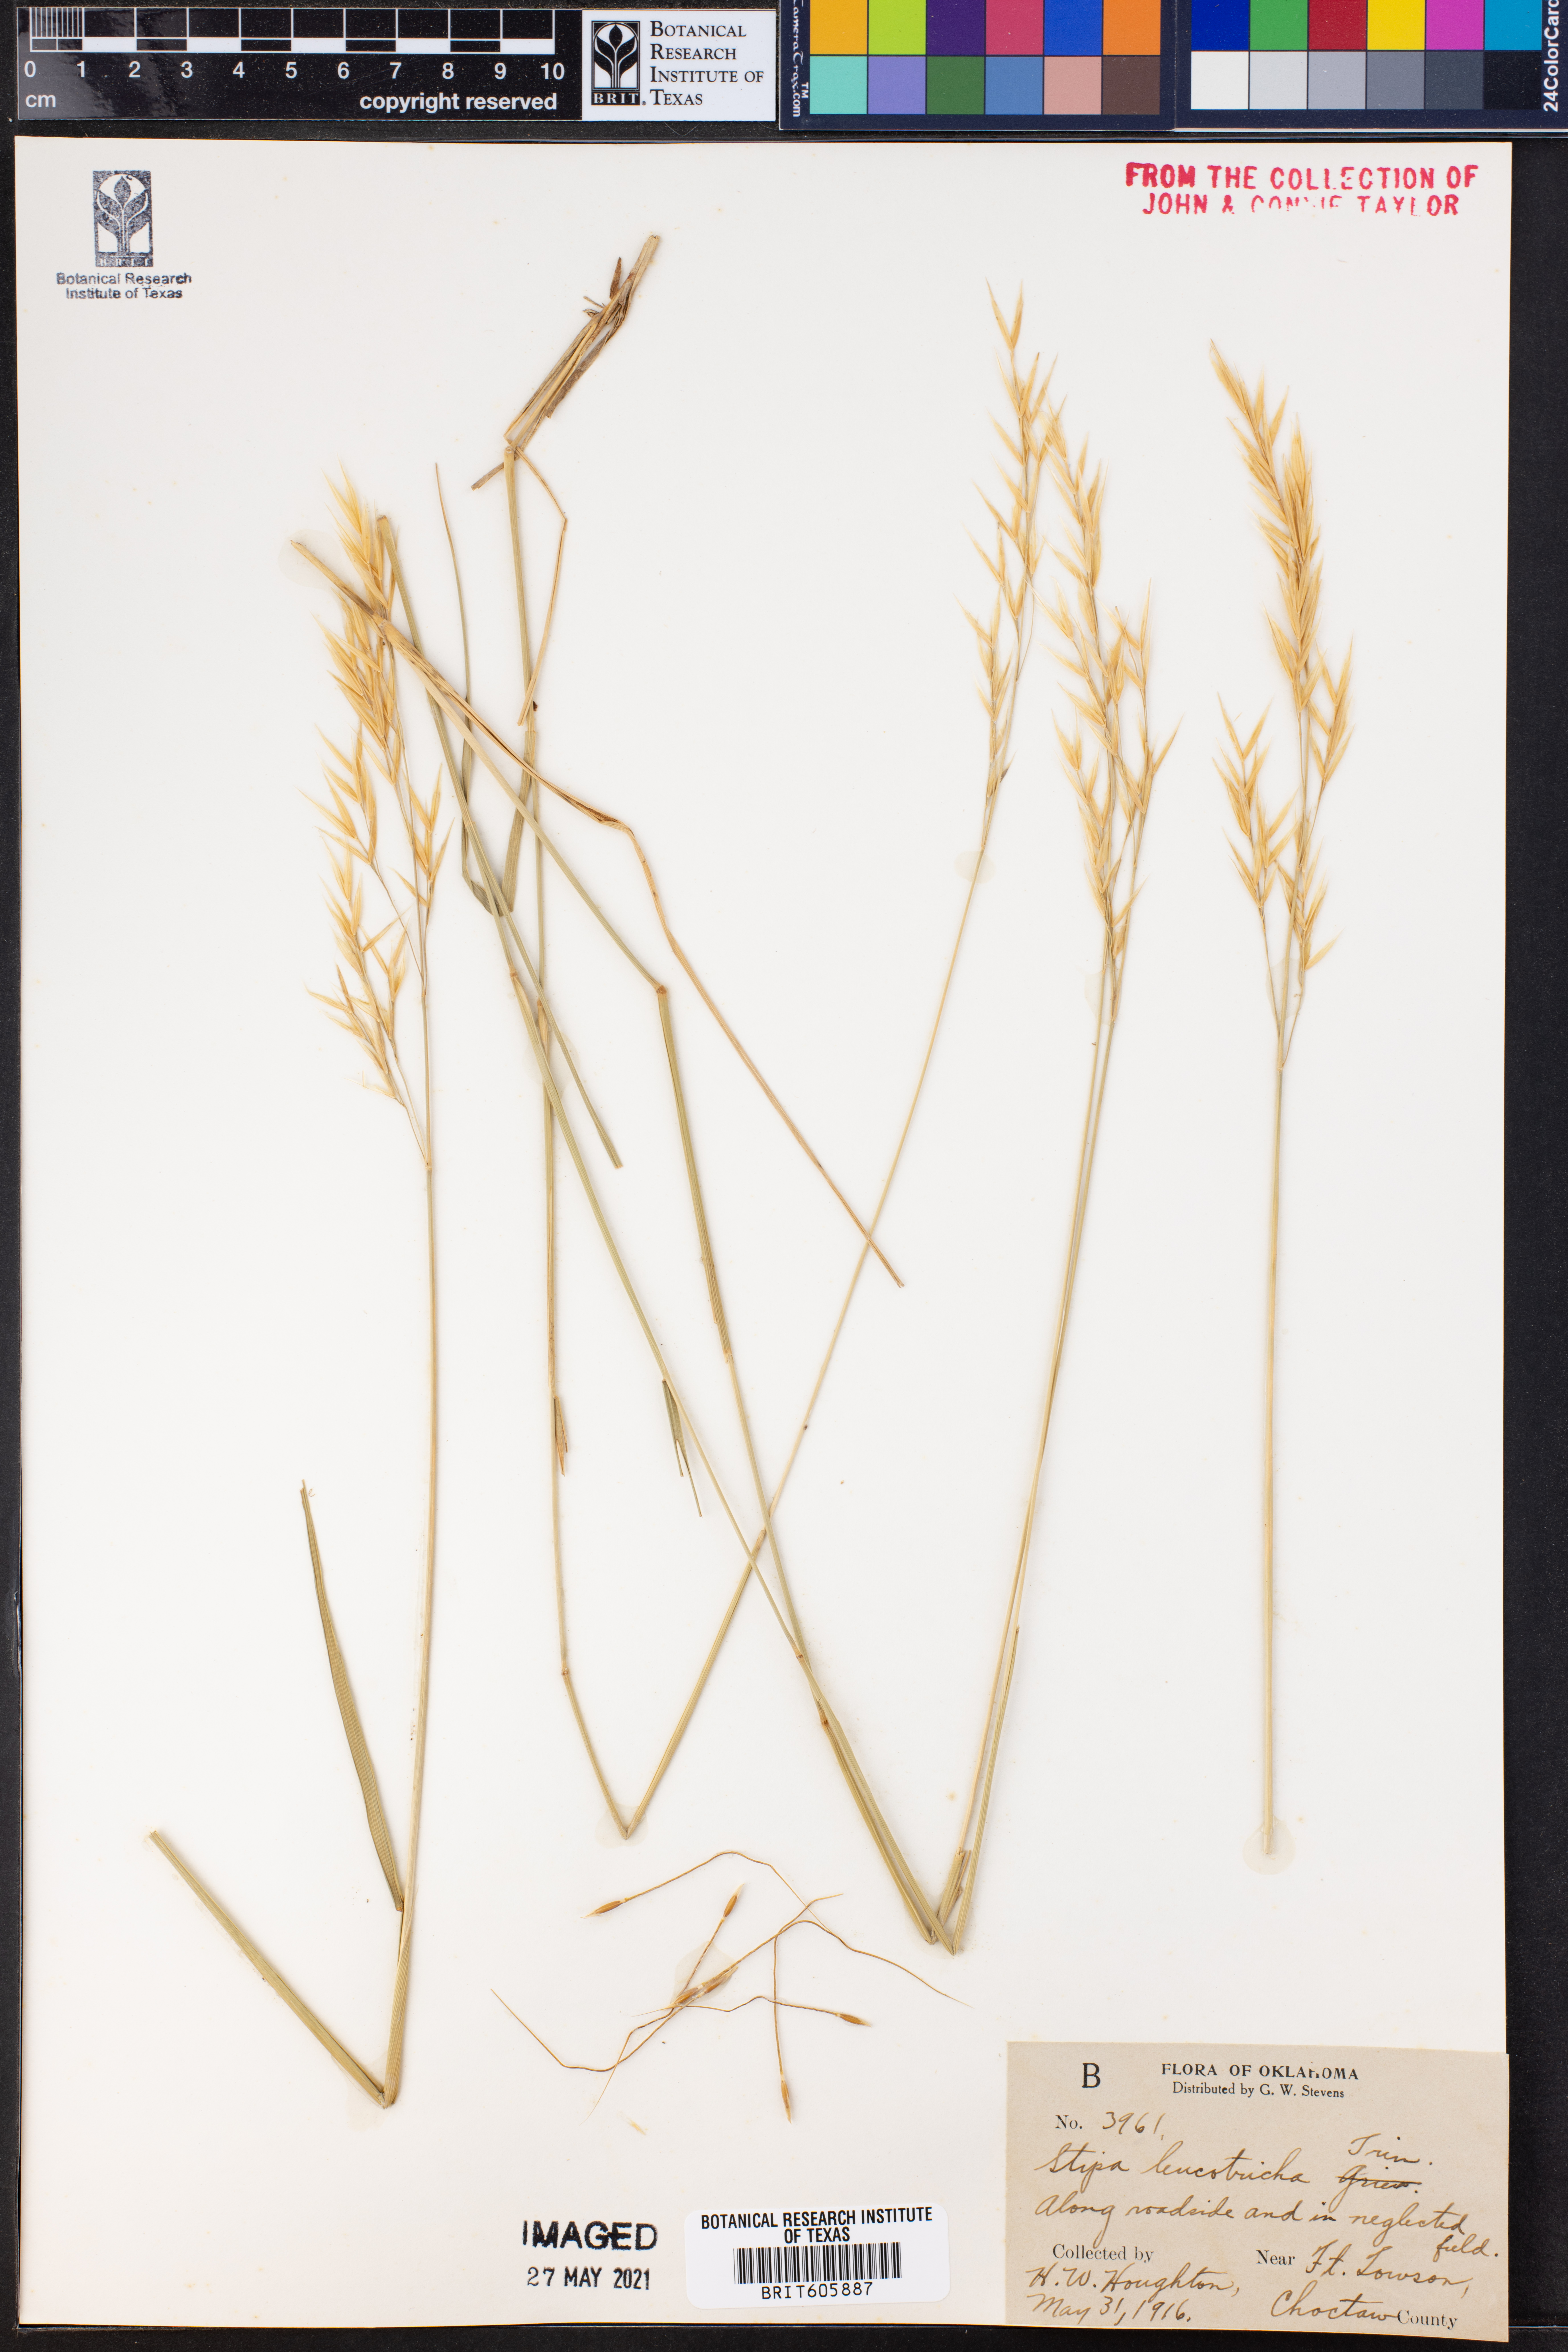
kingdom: Plantae
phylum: Tracheophyta
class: Liliopsida
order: Poales
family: Poaceae
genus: Nassella
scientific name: Nassella leucotricha
